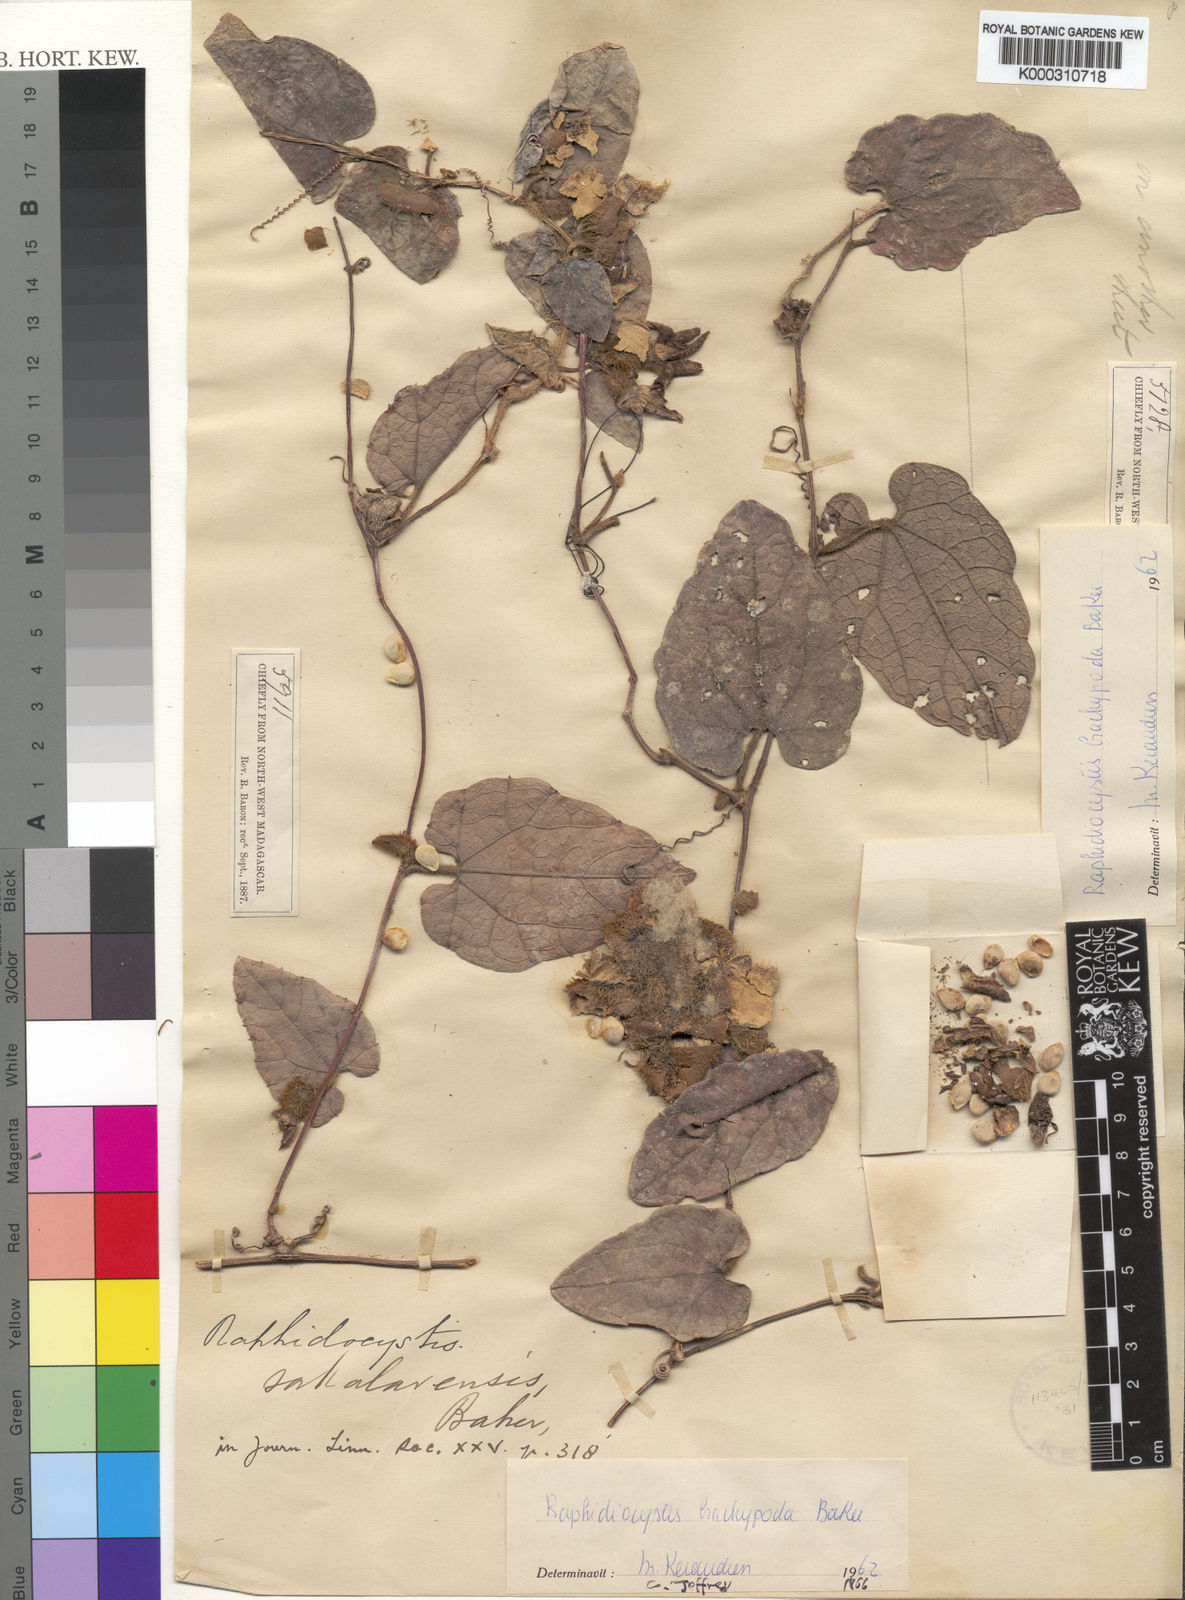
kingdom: Plantae
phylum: Tracheophyta
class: Magnoliopsida
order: Cucurbitales
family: Cucurbitaceae
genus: Raphidiocystis
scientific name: Raphidiocystis brachypoda
